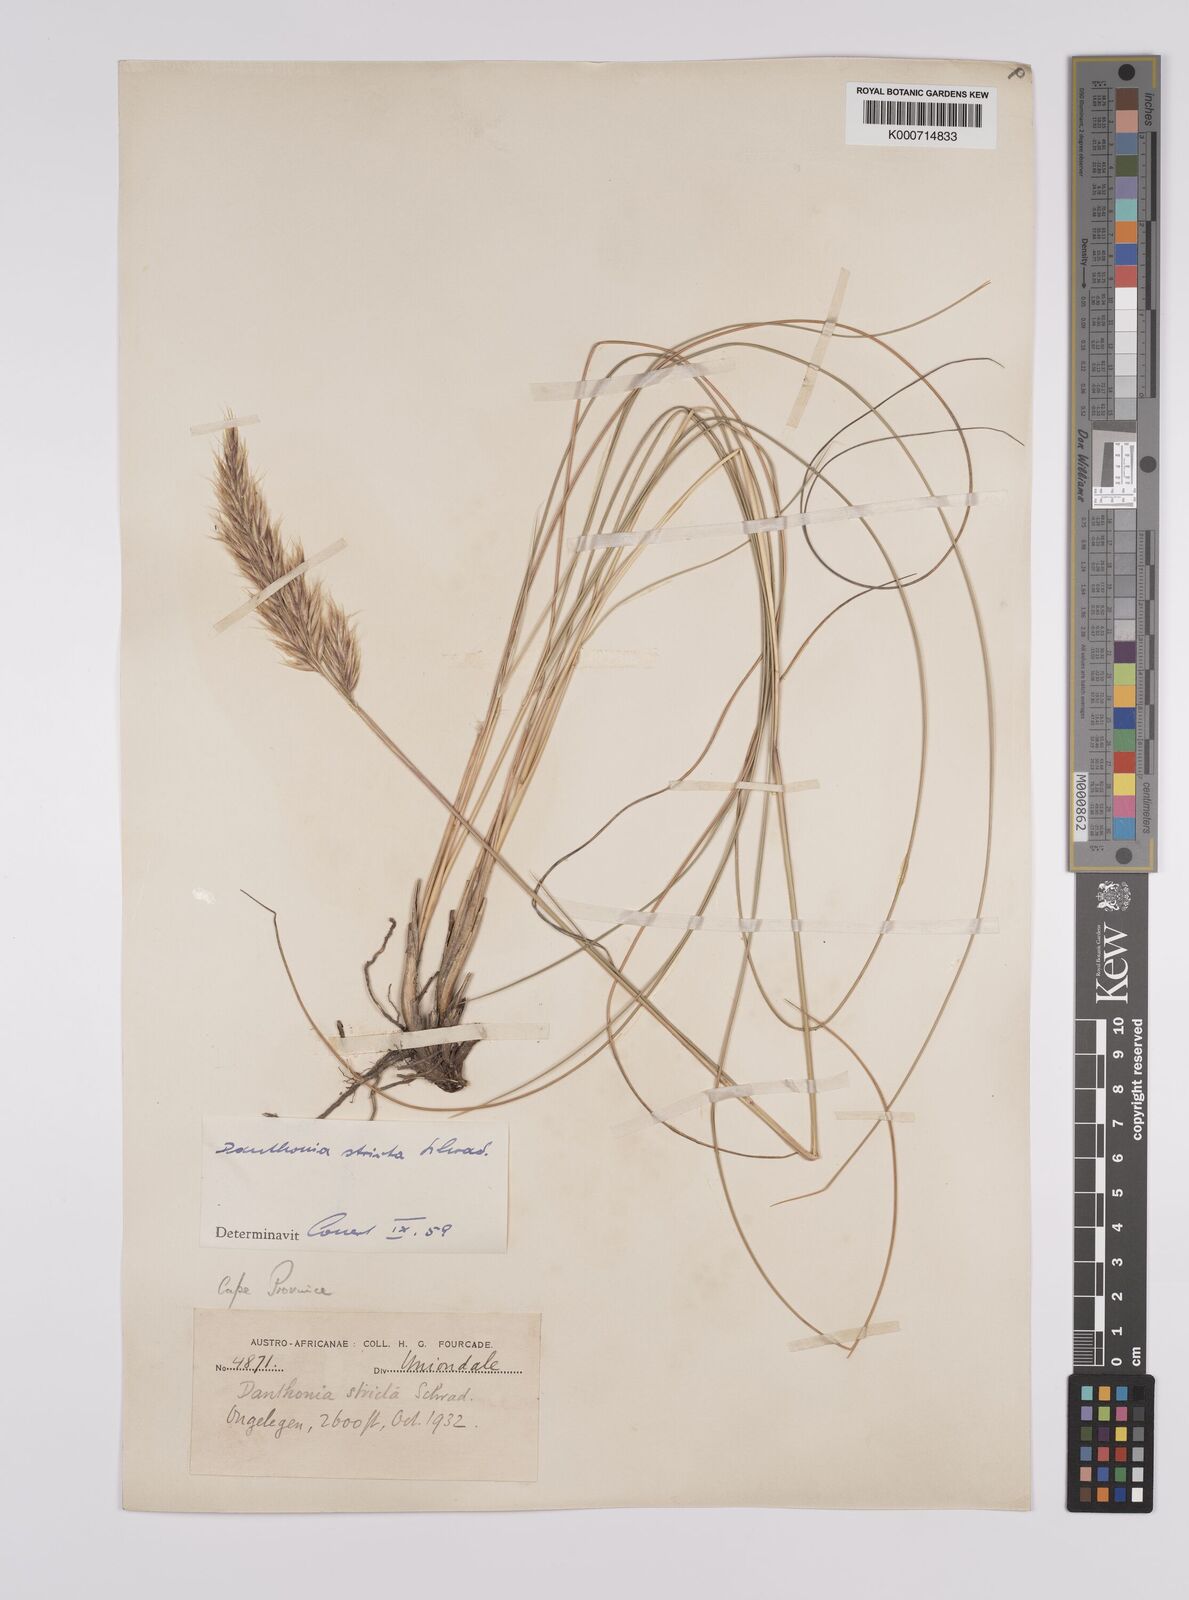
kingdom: Plantae
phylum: Tracheophyta
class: Liliopsida
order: Poales
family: Poaceae
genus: Rytidosperma
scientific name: Rytidosperma
